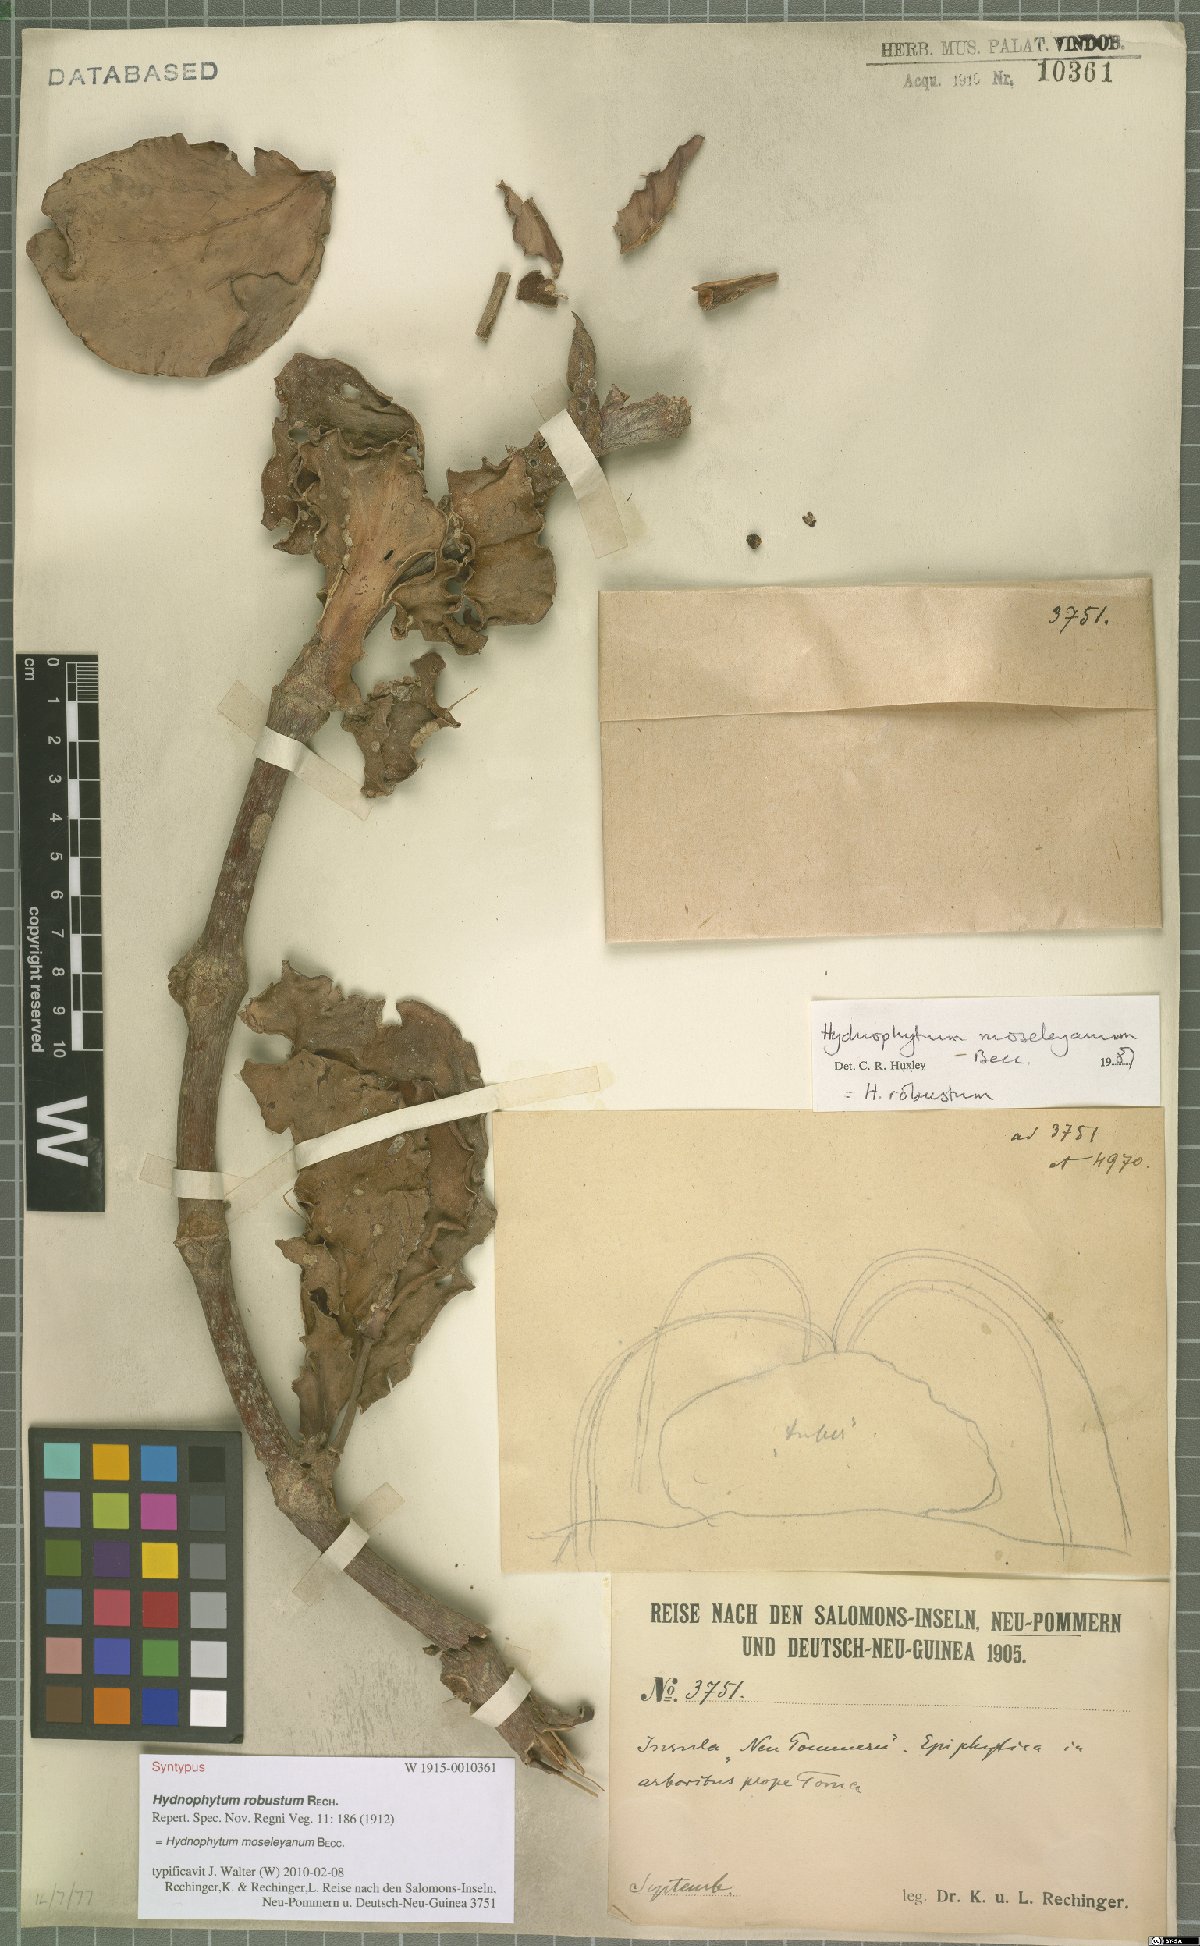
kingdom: Plantae
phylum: Tracheophyta
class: Magnoliopsida
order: Gentianales
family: Rubiaceae
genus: Hydnophytum
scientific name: Hydnophytum moseleyanum
